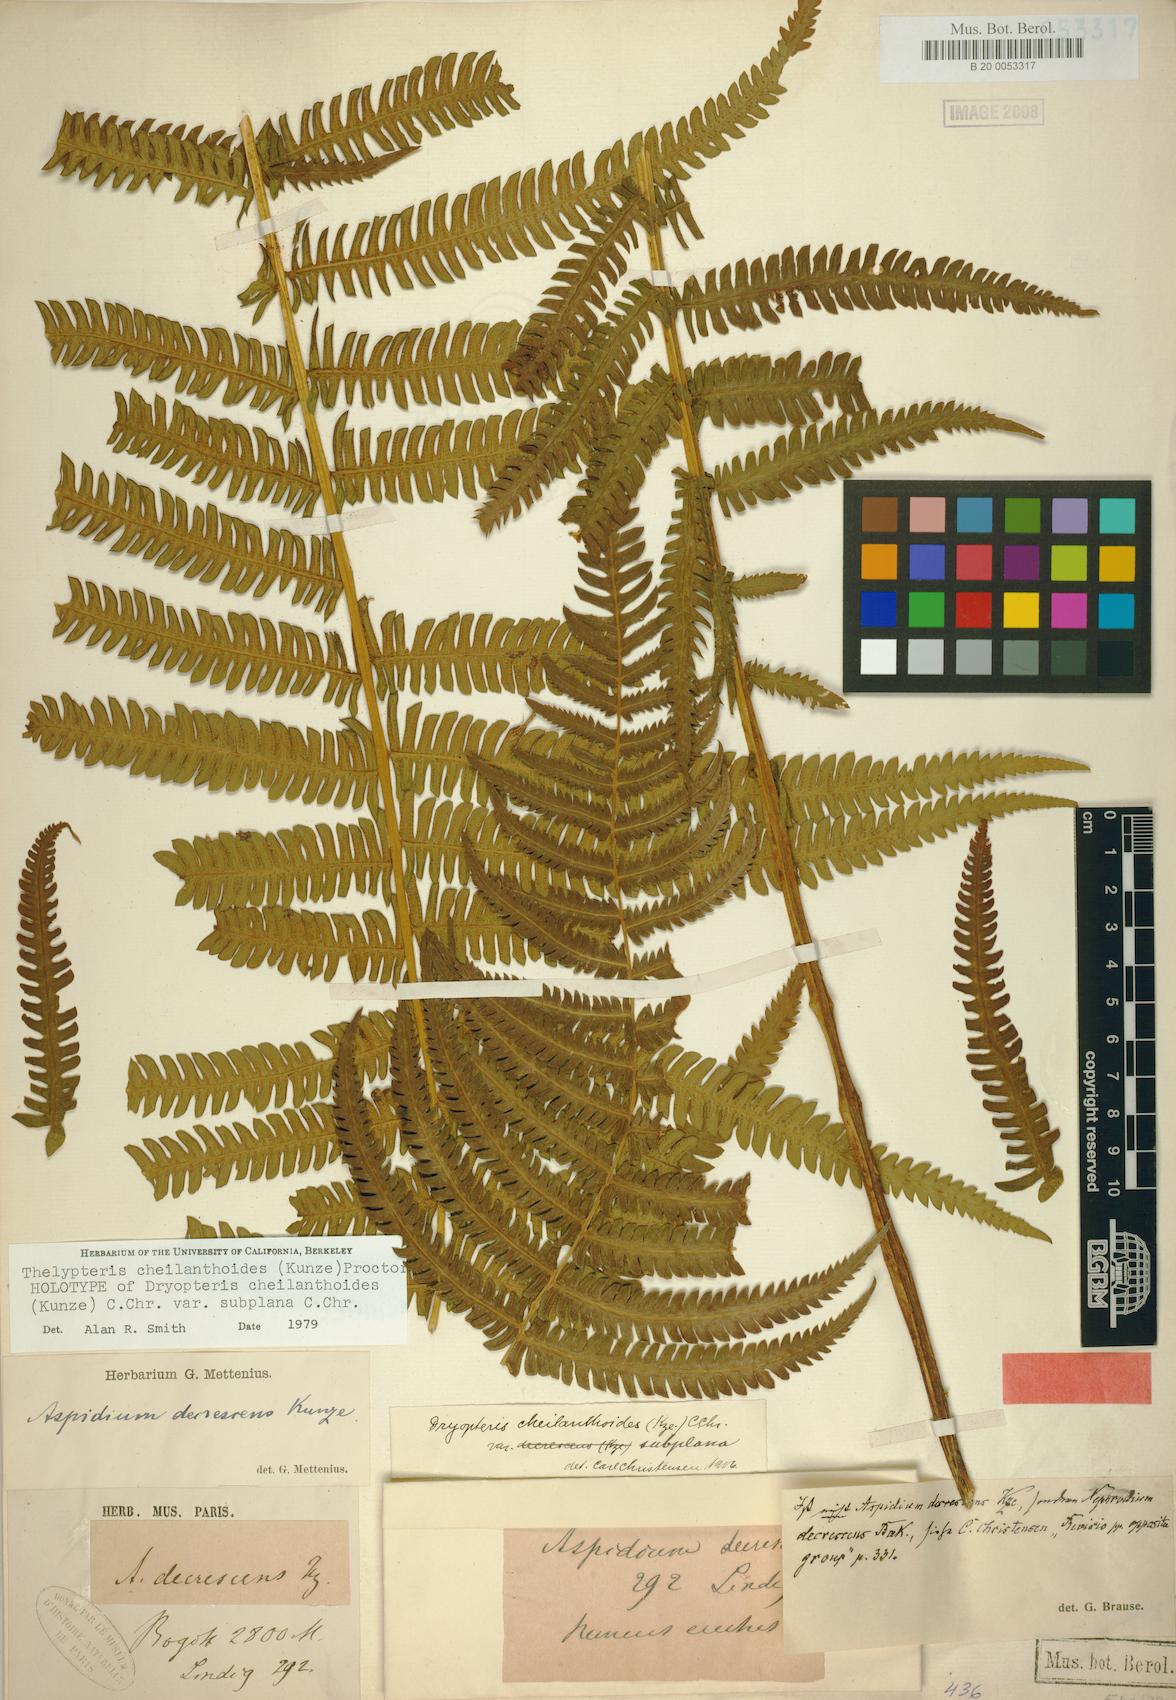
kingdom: Plantae
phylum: Tracheophyta
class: Polypodiopsida
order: Polypodiales
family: Thelypteridaceae
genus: Amauropelta
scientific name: Amauropelta cheilanthoides
